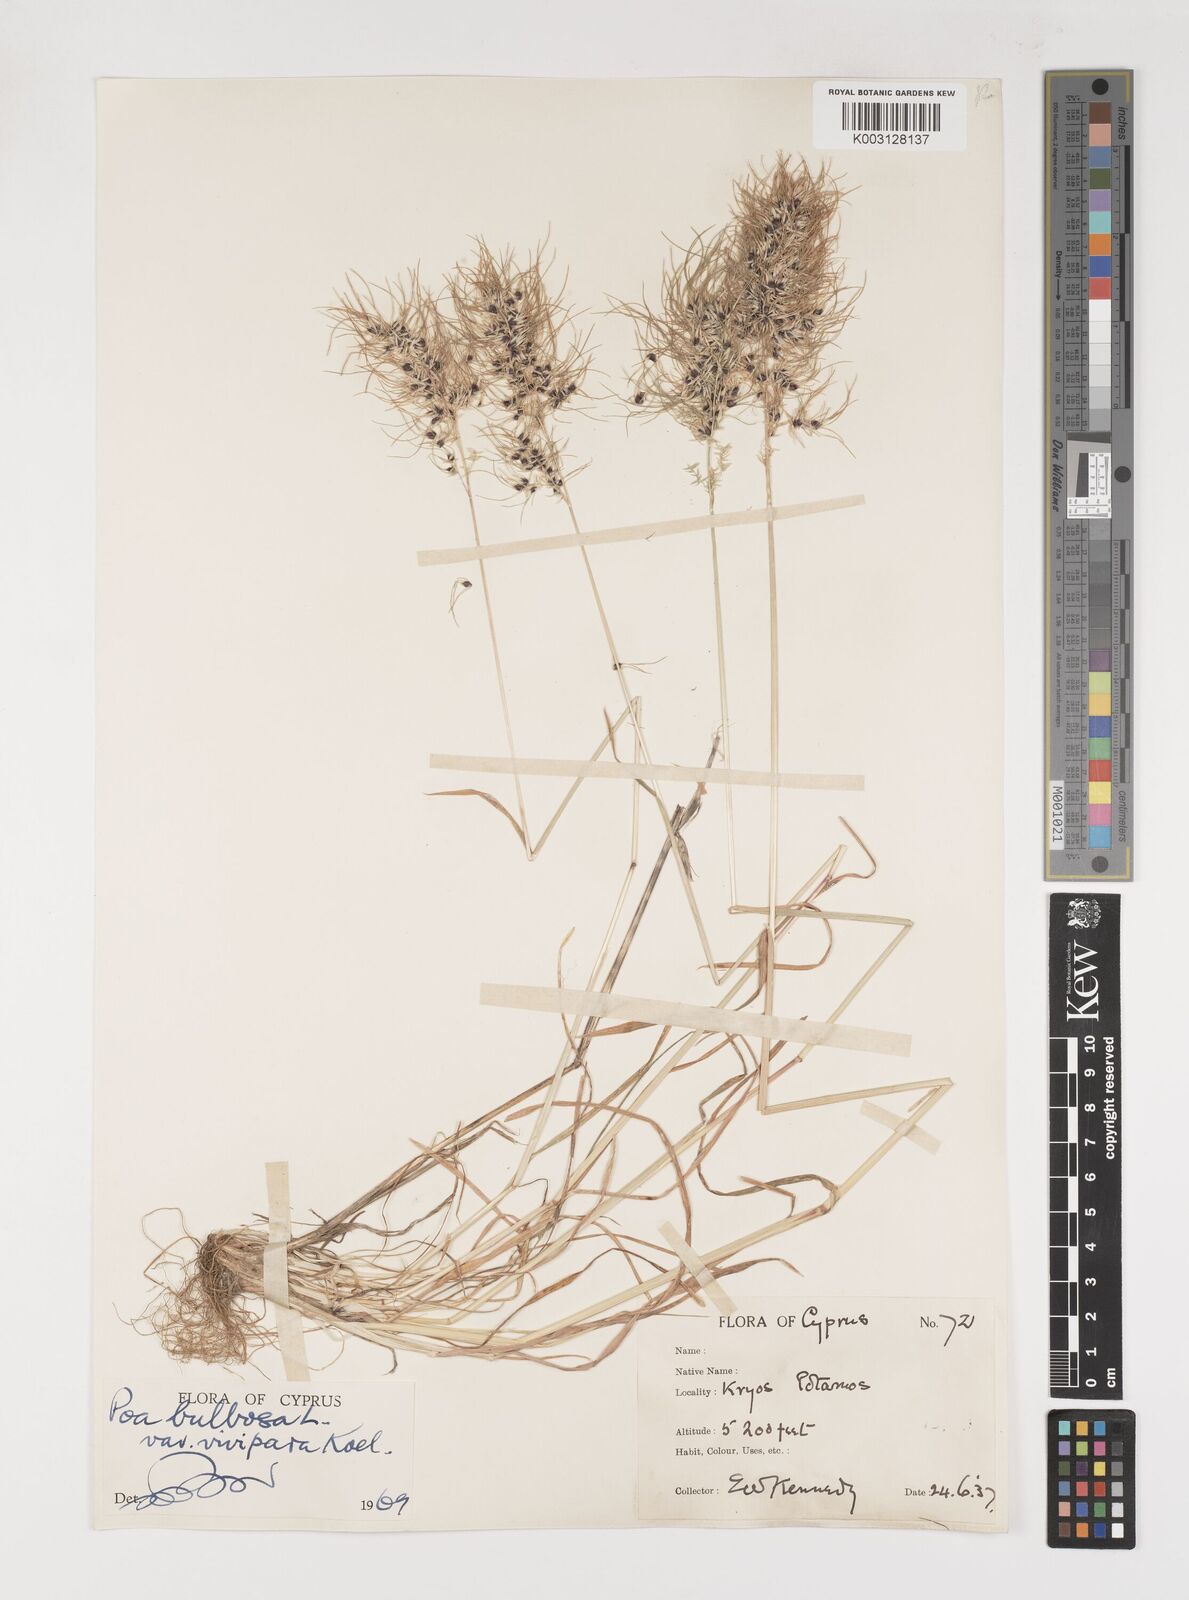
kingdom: Plantae
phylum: Tracheophyta
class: Liliopsida
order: Poales
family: Poaceae
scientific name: Poaceae
